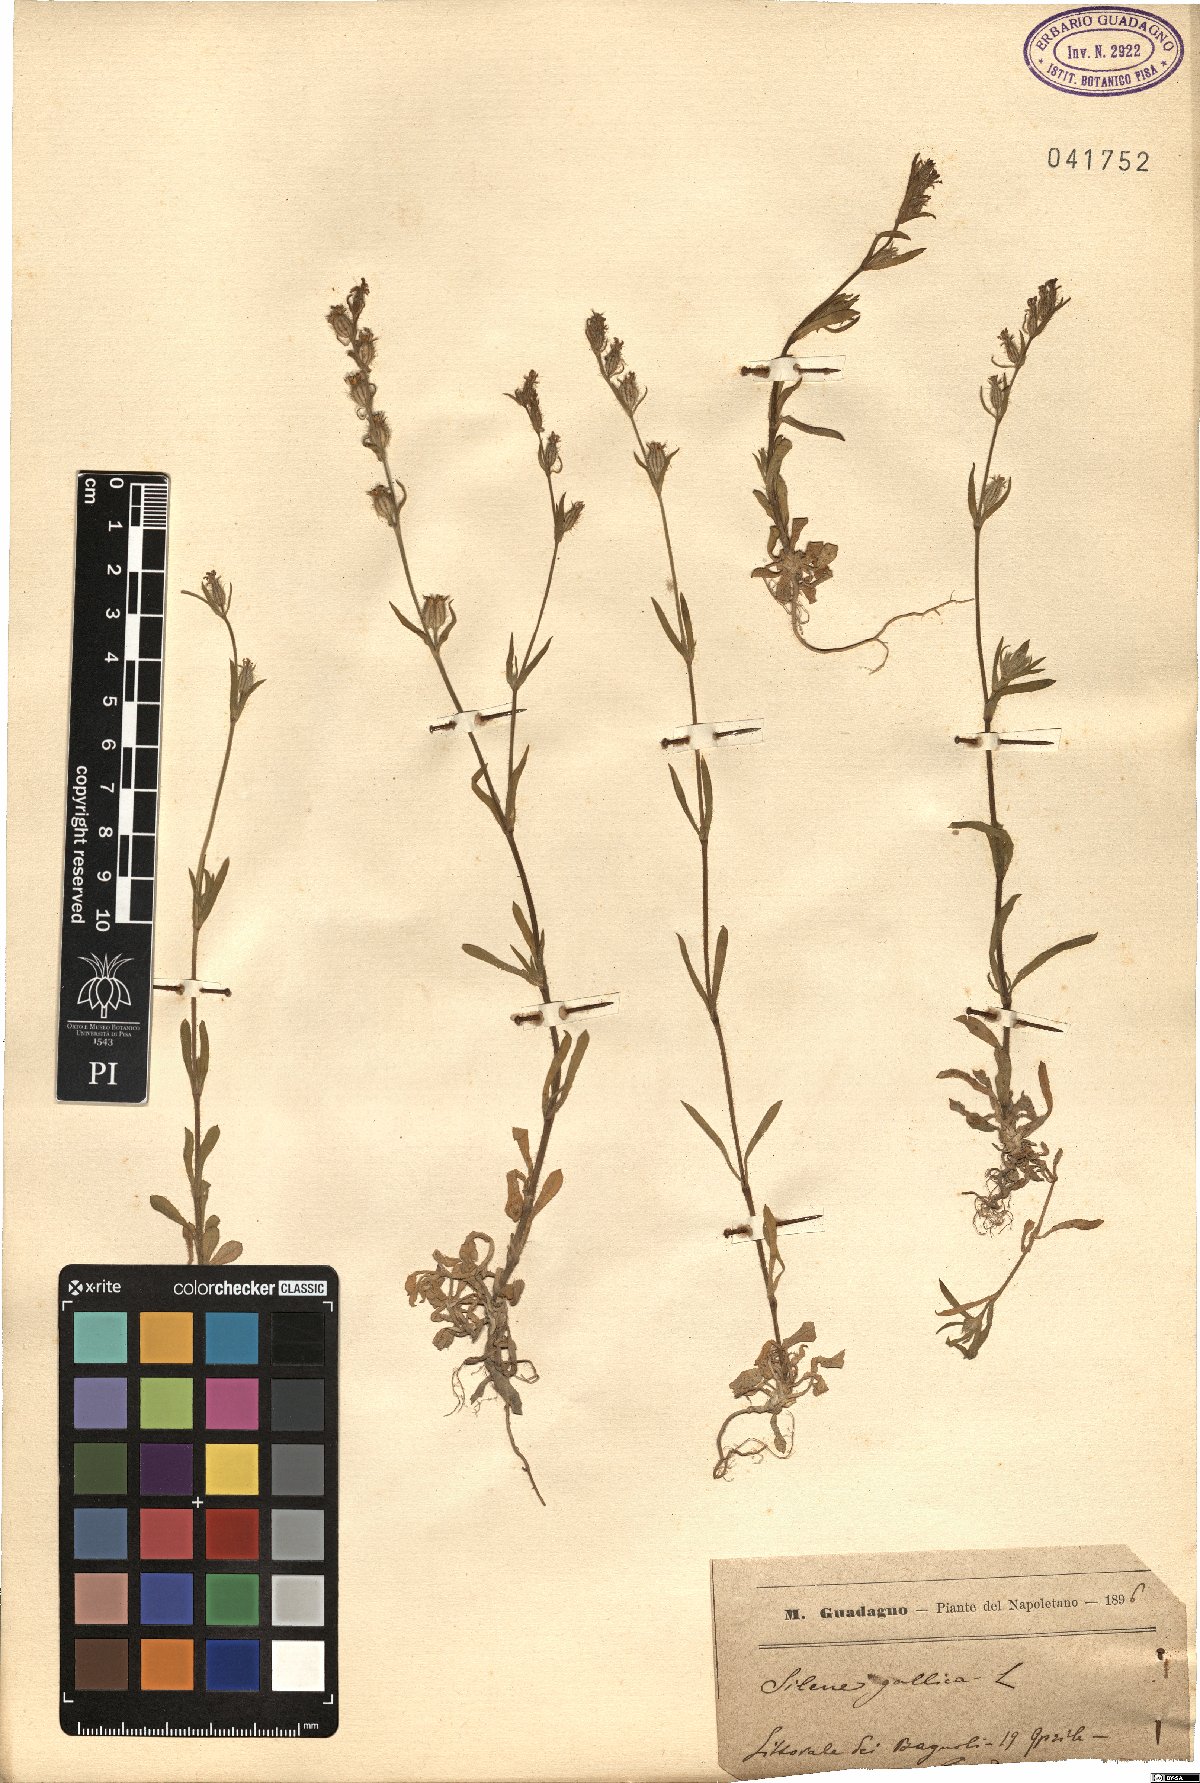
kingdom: Plantae
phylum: Tracheophyta
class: Magnoliopsida
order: Caryophyllales
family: Caryophyllaceae
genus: Silene
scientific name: Silene gallica
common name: Small-flowered catchfly
